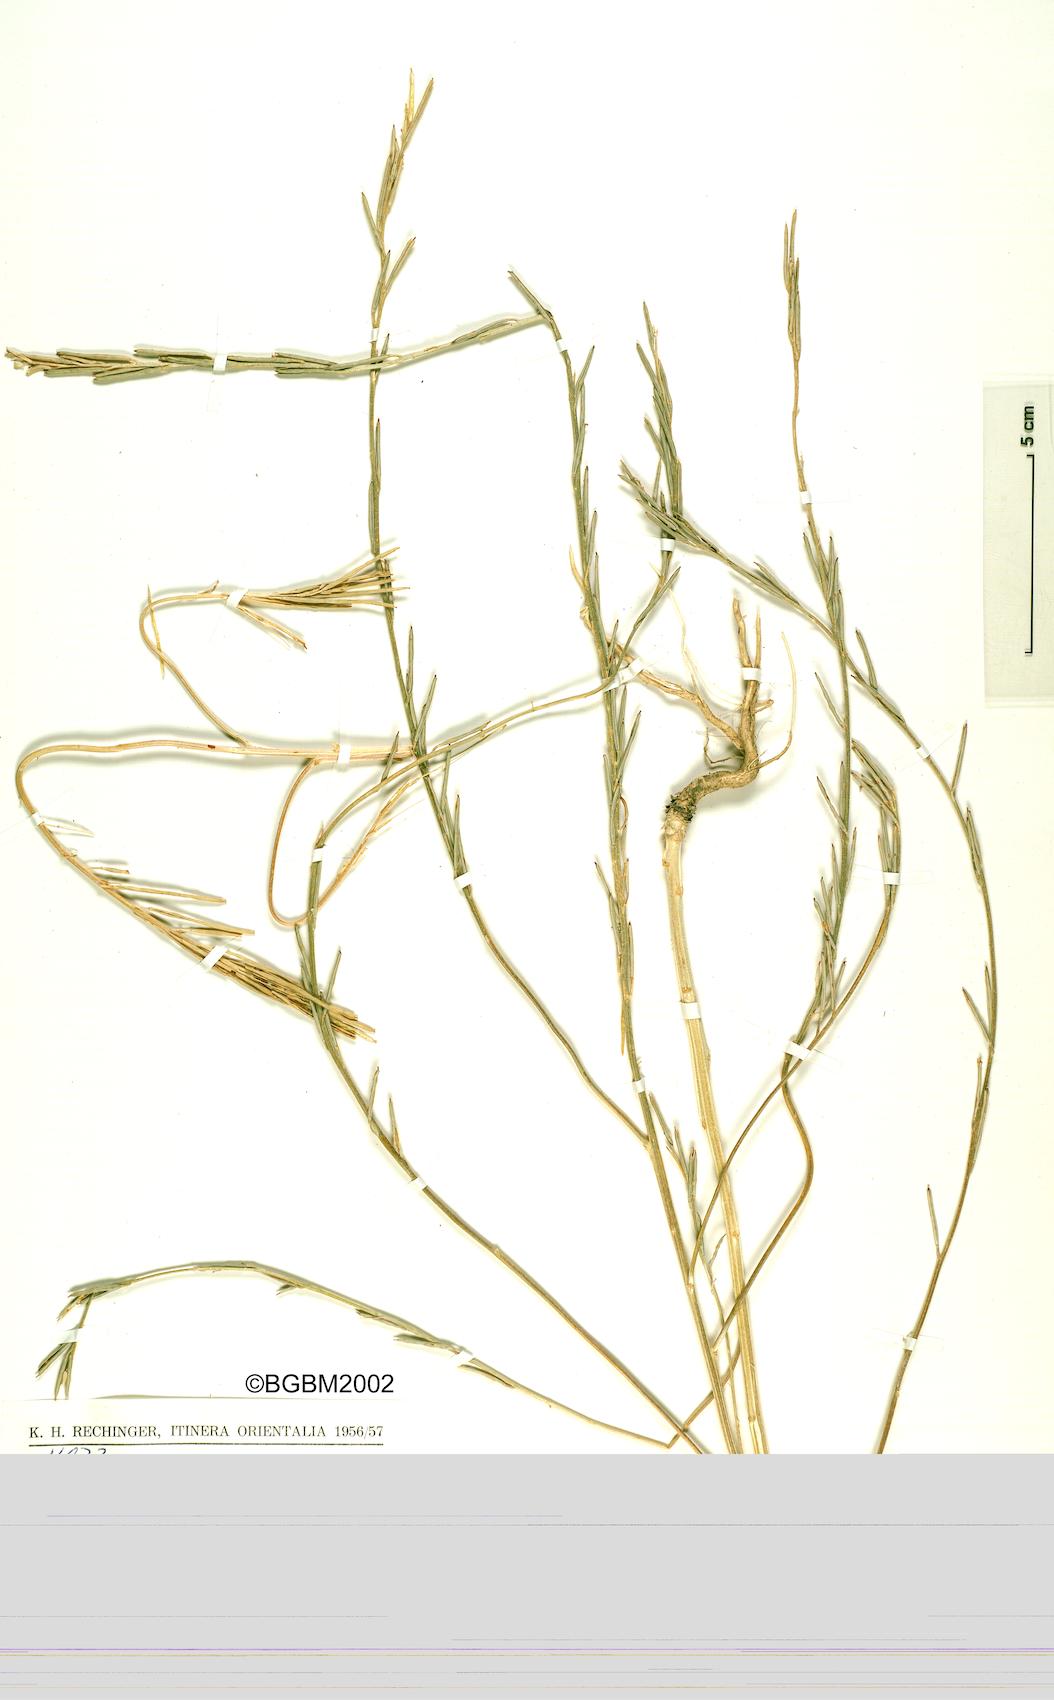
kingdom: Plantae
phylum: Tracheophyta
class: Magnoliopsida
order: Brassicales
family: Brassicaceae
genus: Erysimum
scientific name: Erysimum kurdicum
